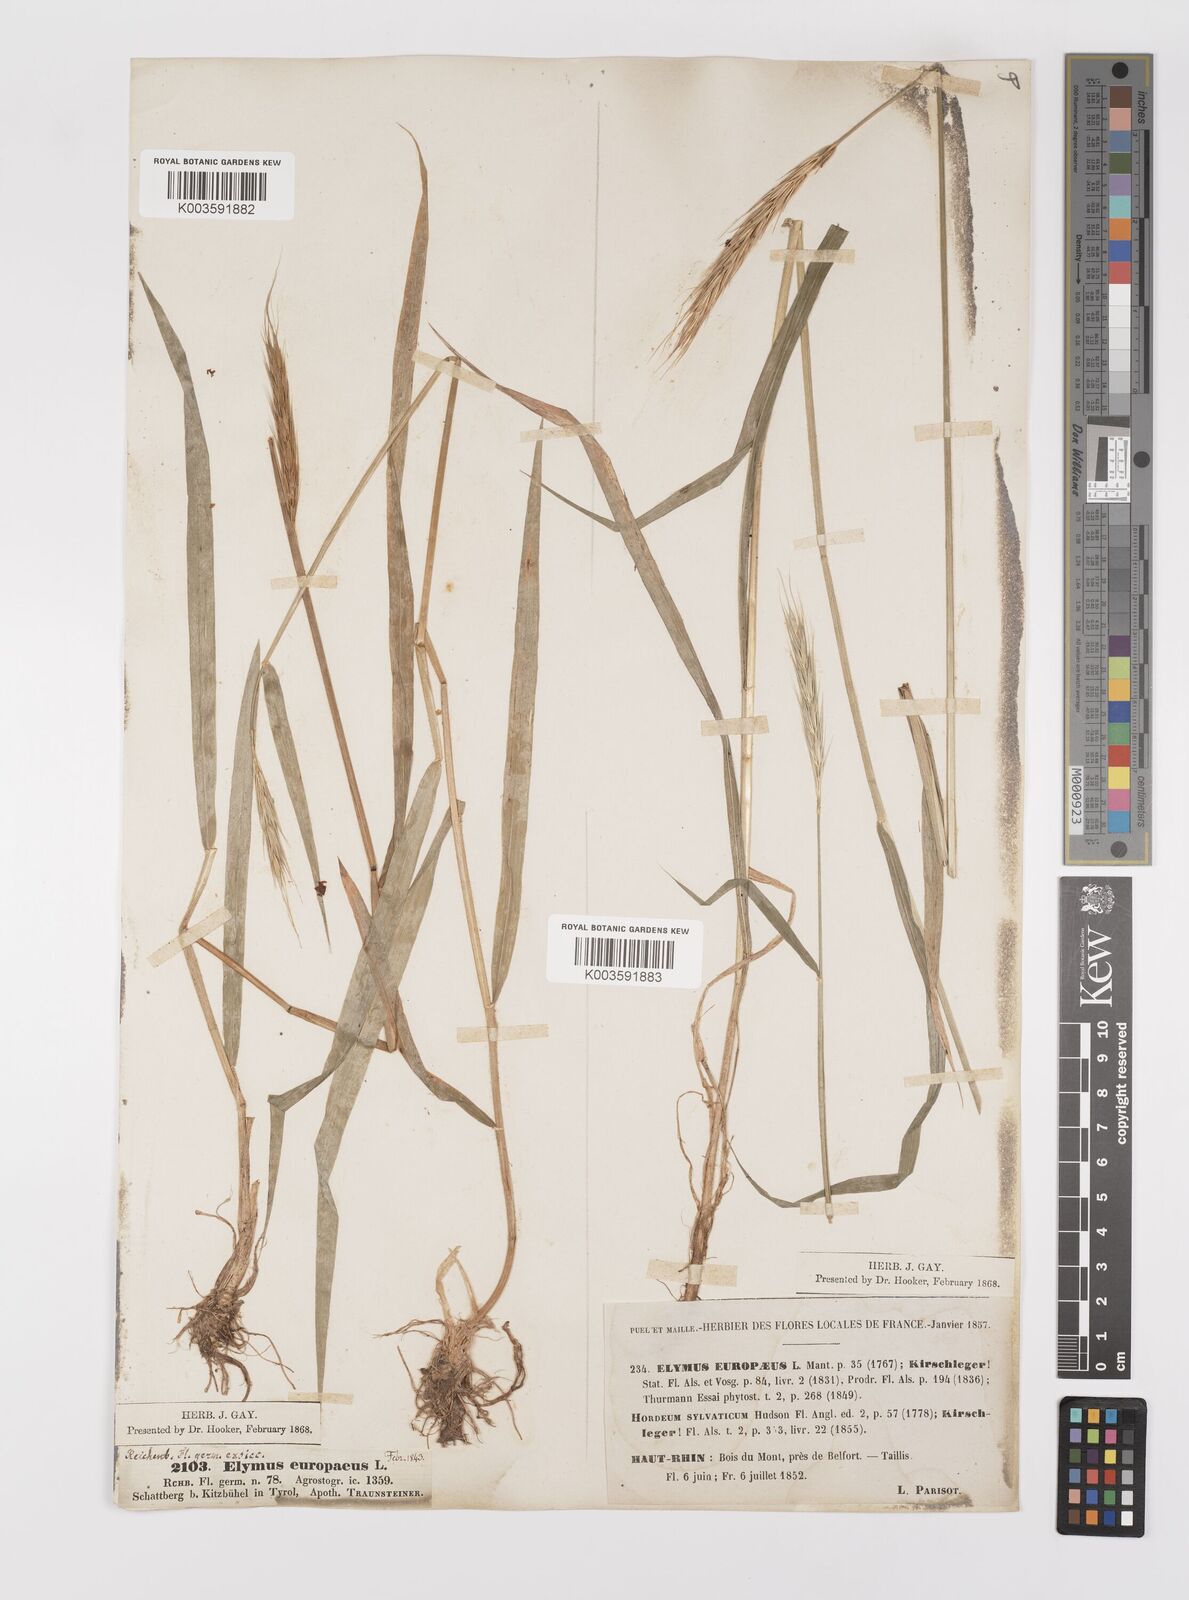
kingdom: Plantae
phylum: Tracheophyta
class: Liliopsida
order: Poales
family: Poaceae
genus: Hordelymus
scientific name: Hordelymus europaeus
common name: Wood-barley
